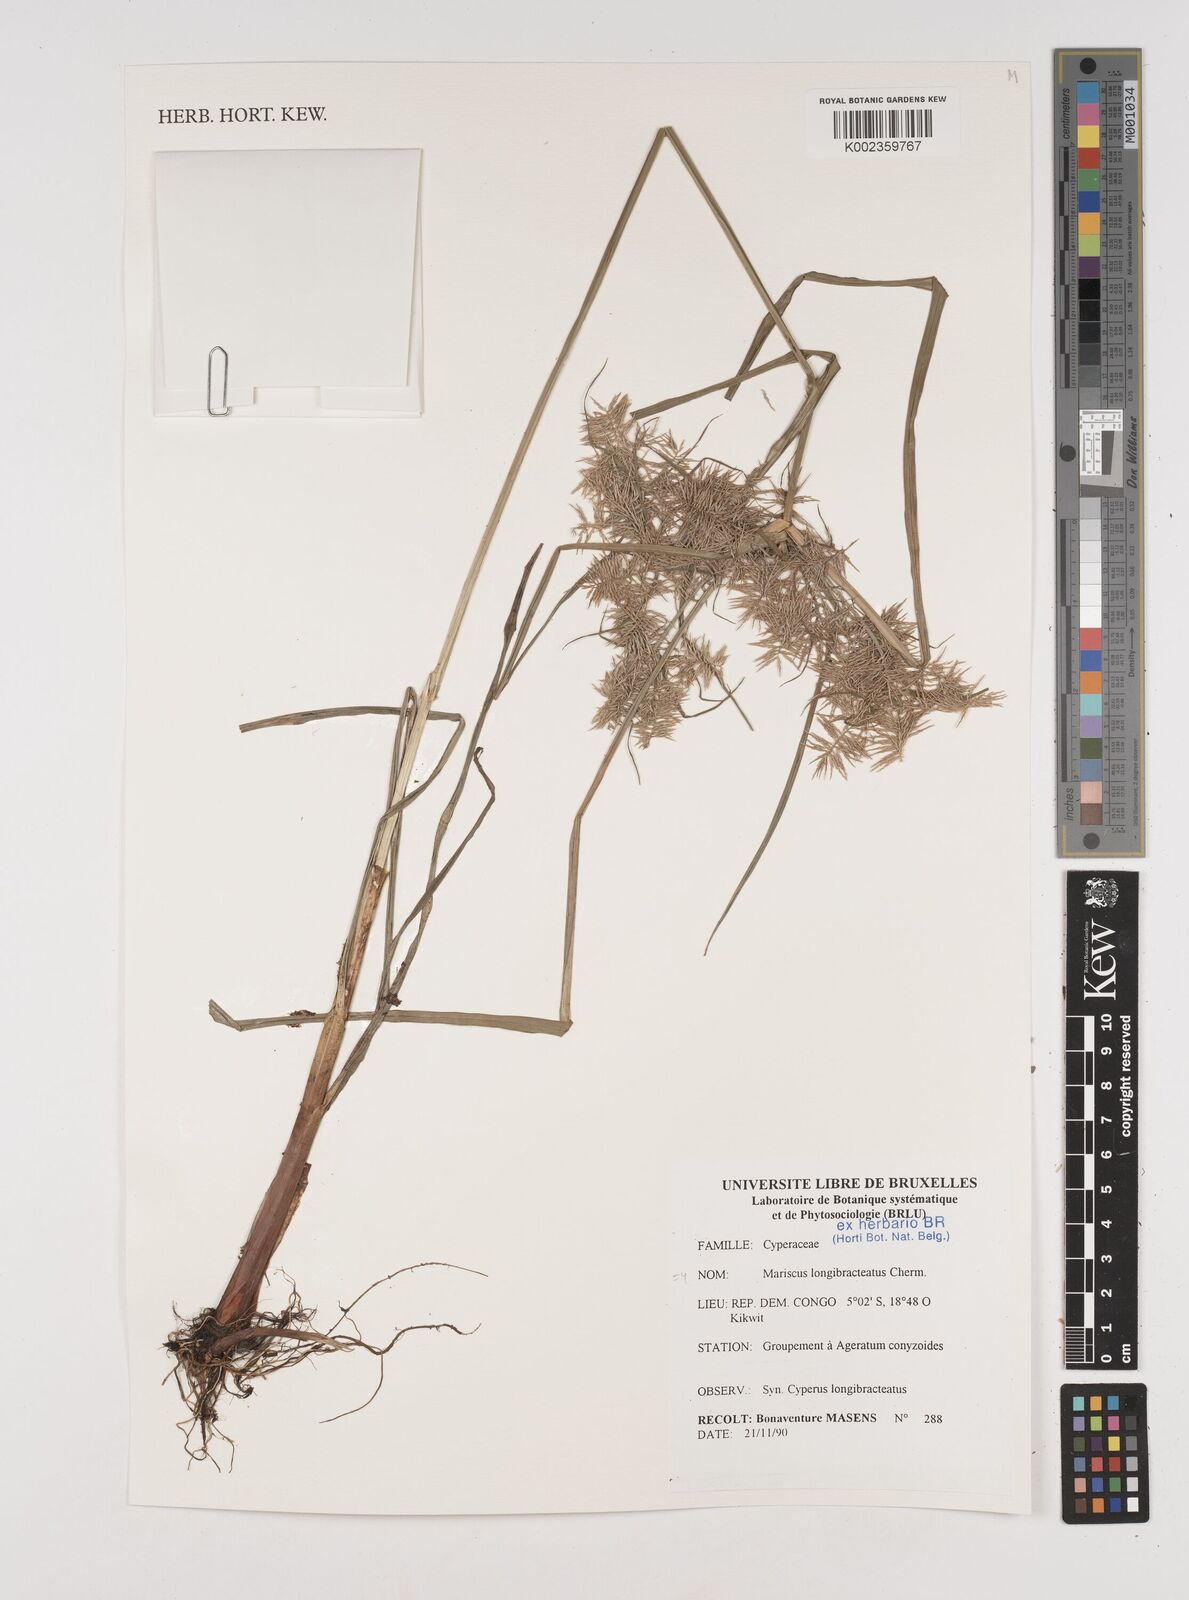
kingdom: Plantae
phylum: Tracheophyta
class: Liliopsida
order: Poales
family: Cyperaceae
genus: Cyperus
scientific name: Cyperus distans
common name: Slender cyperus
